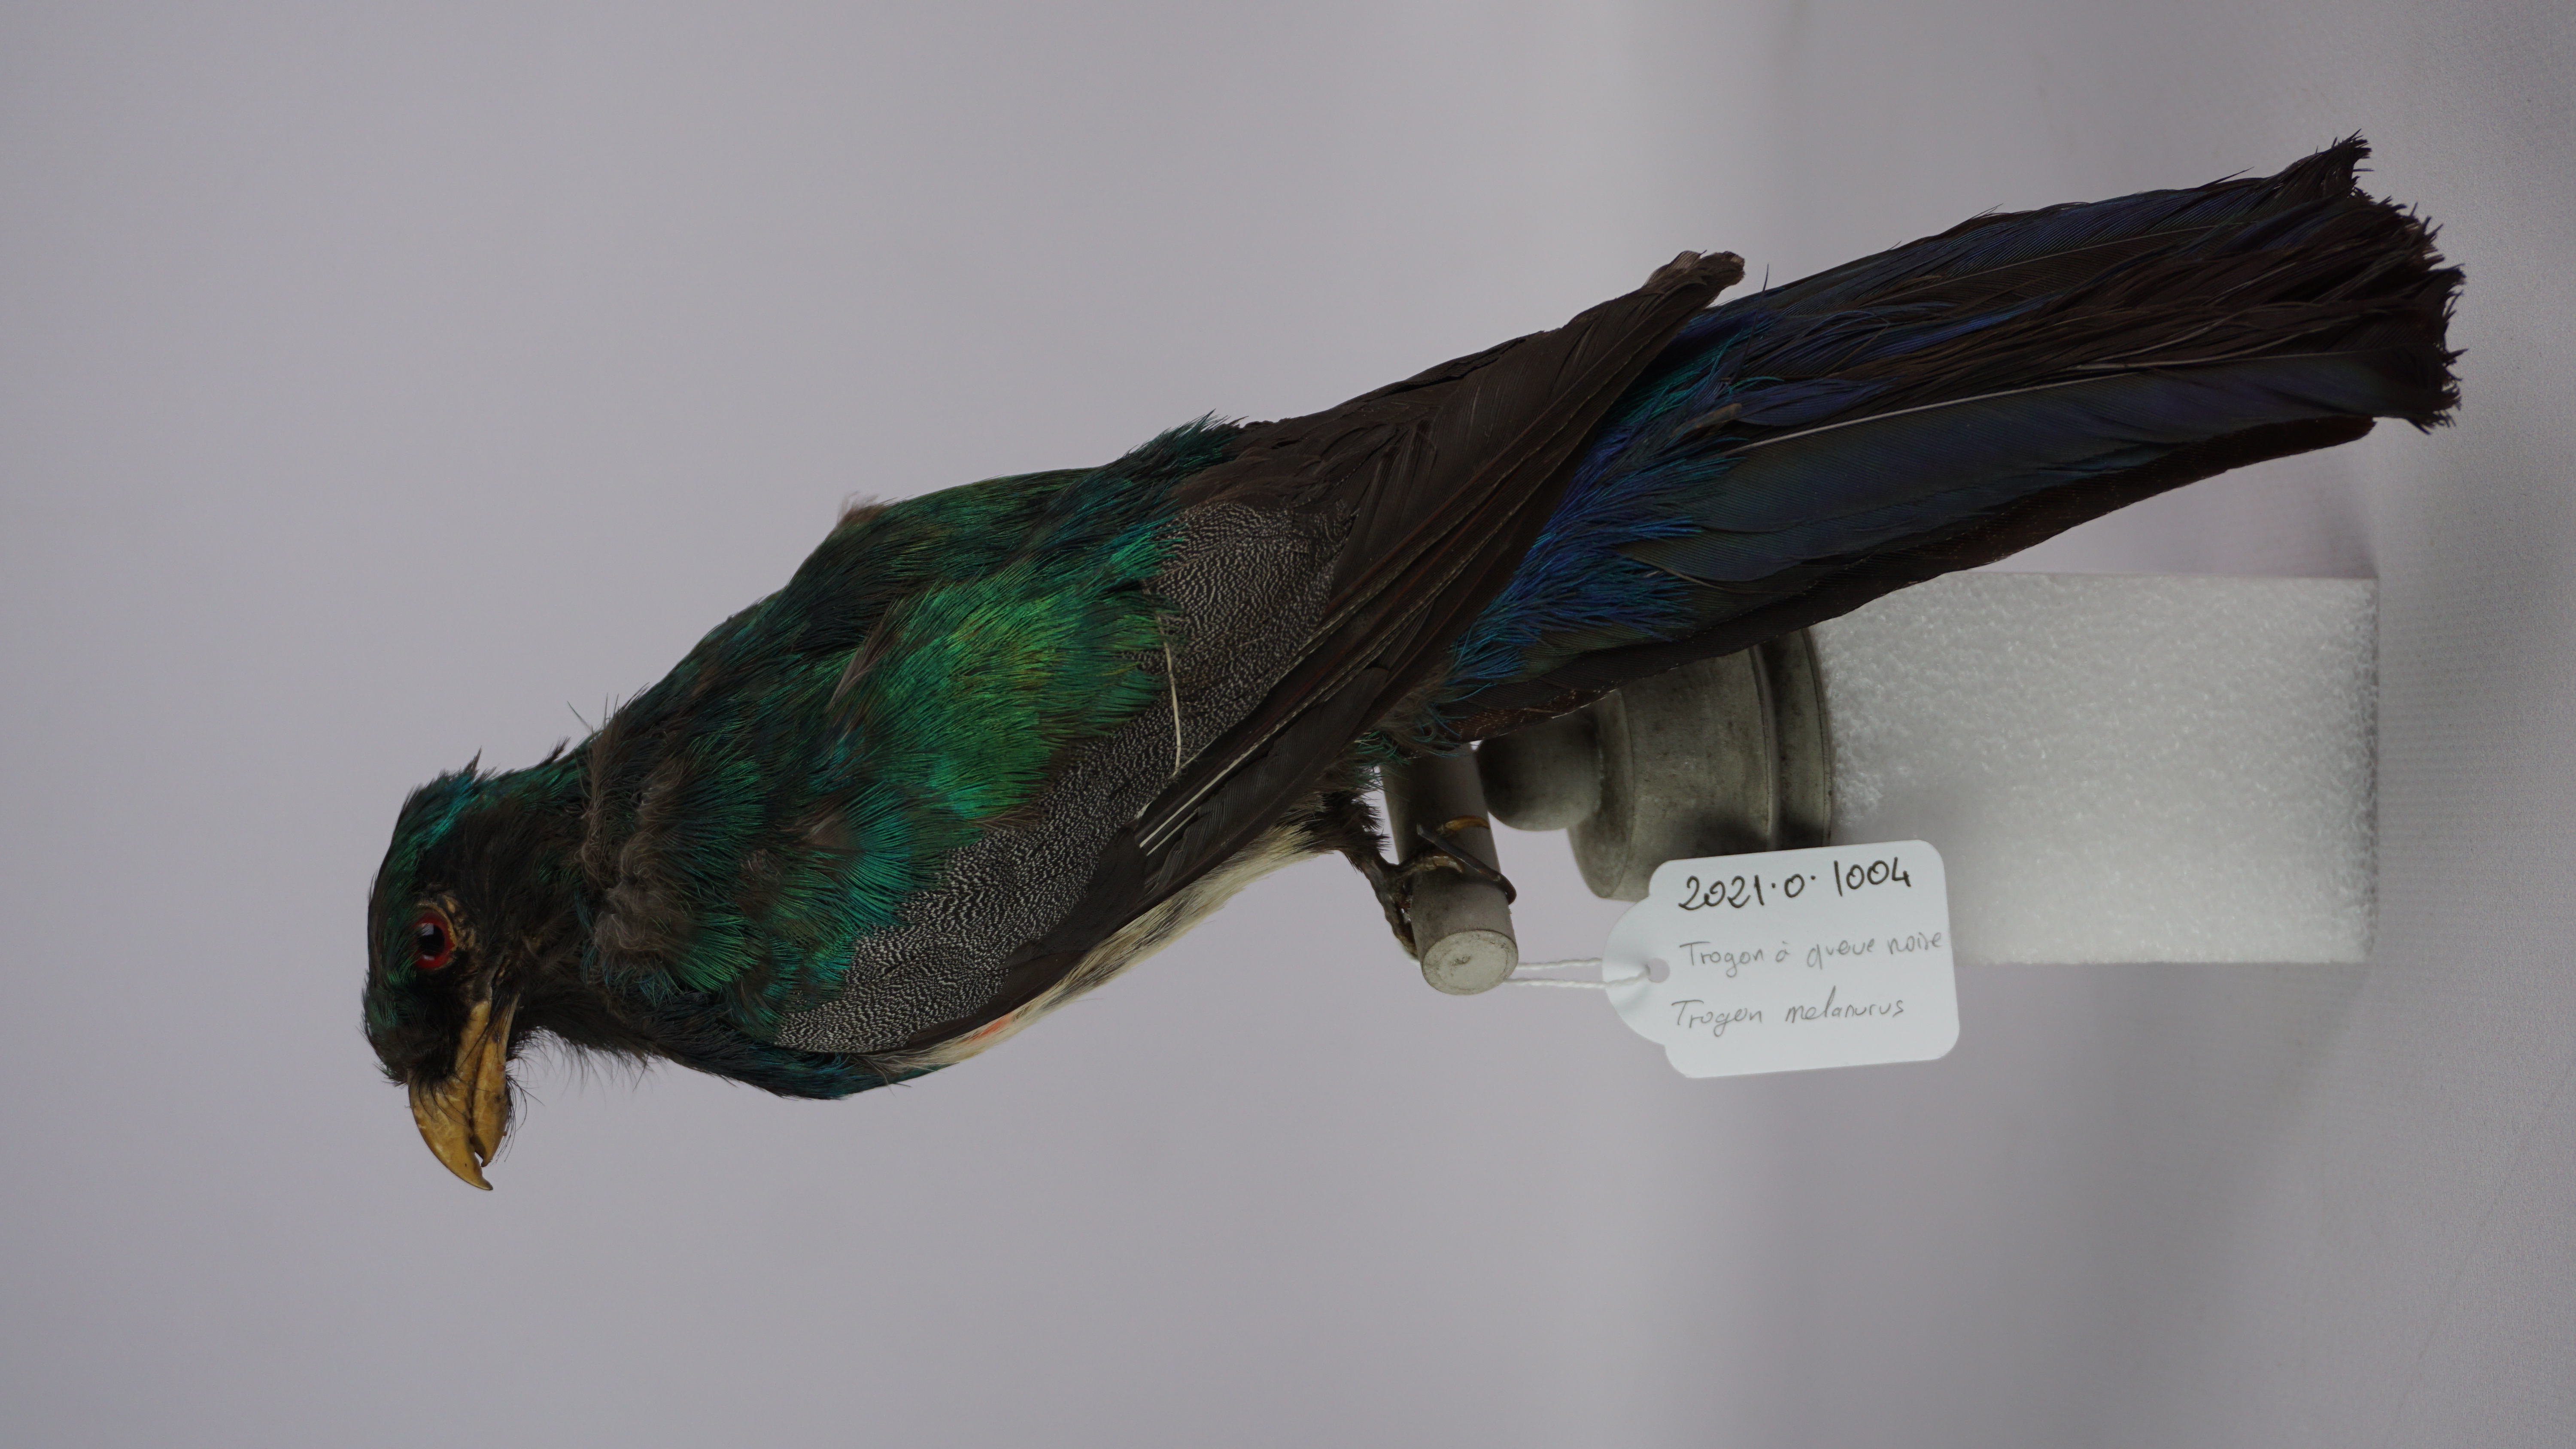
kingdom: Animalia
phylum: Chordata
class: Aves
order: Trogoniformes
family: Trogonidae
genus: Trogon
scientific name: Trogon melanurus
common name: Black-tailed trogon
